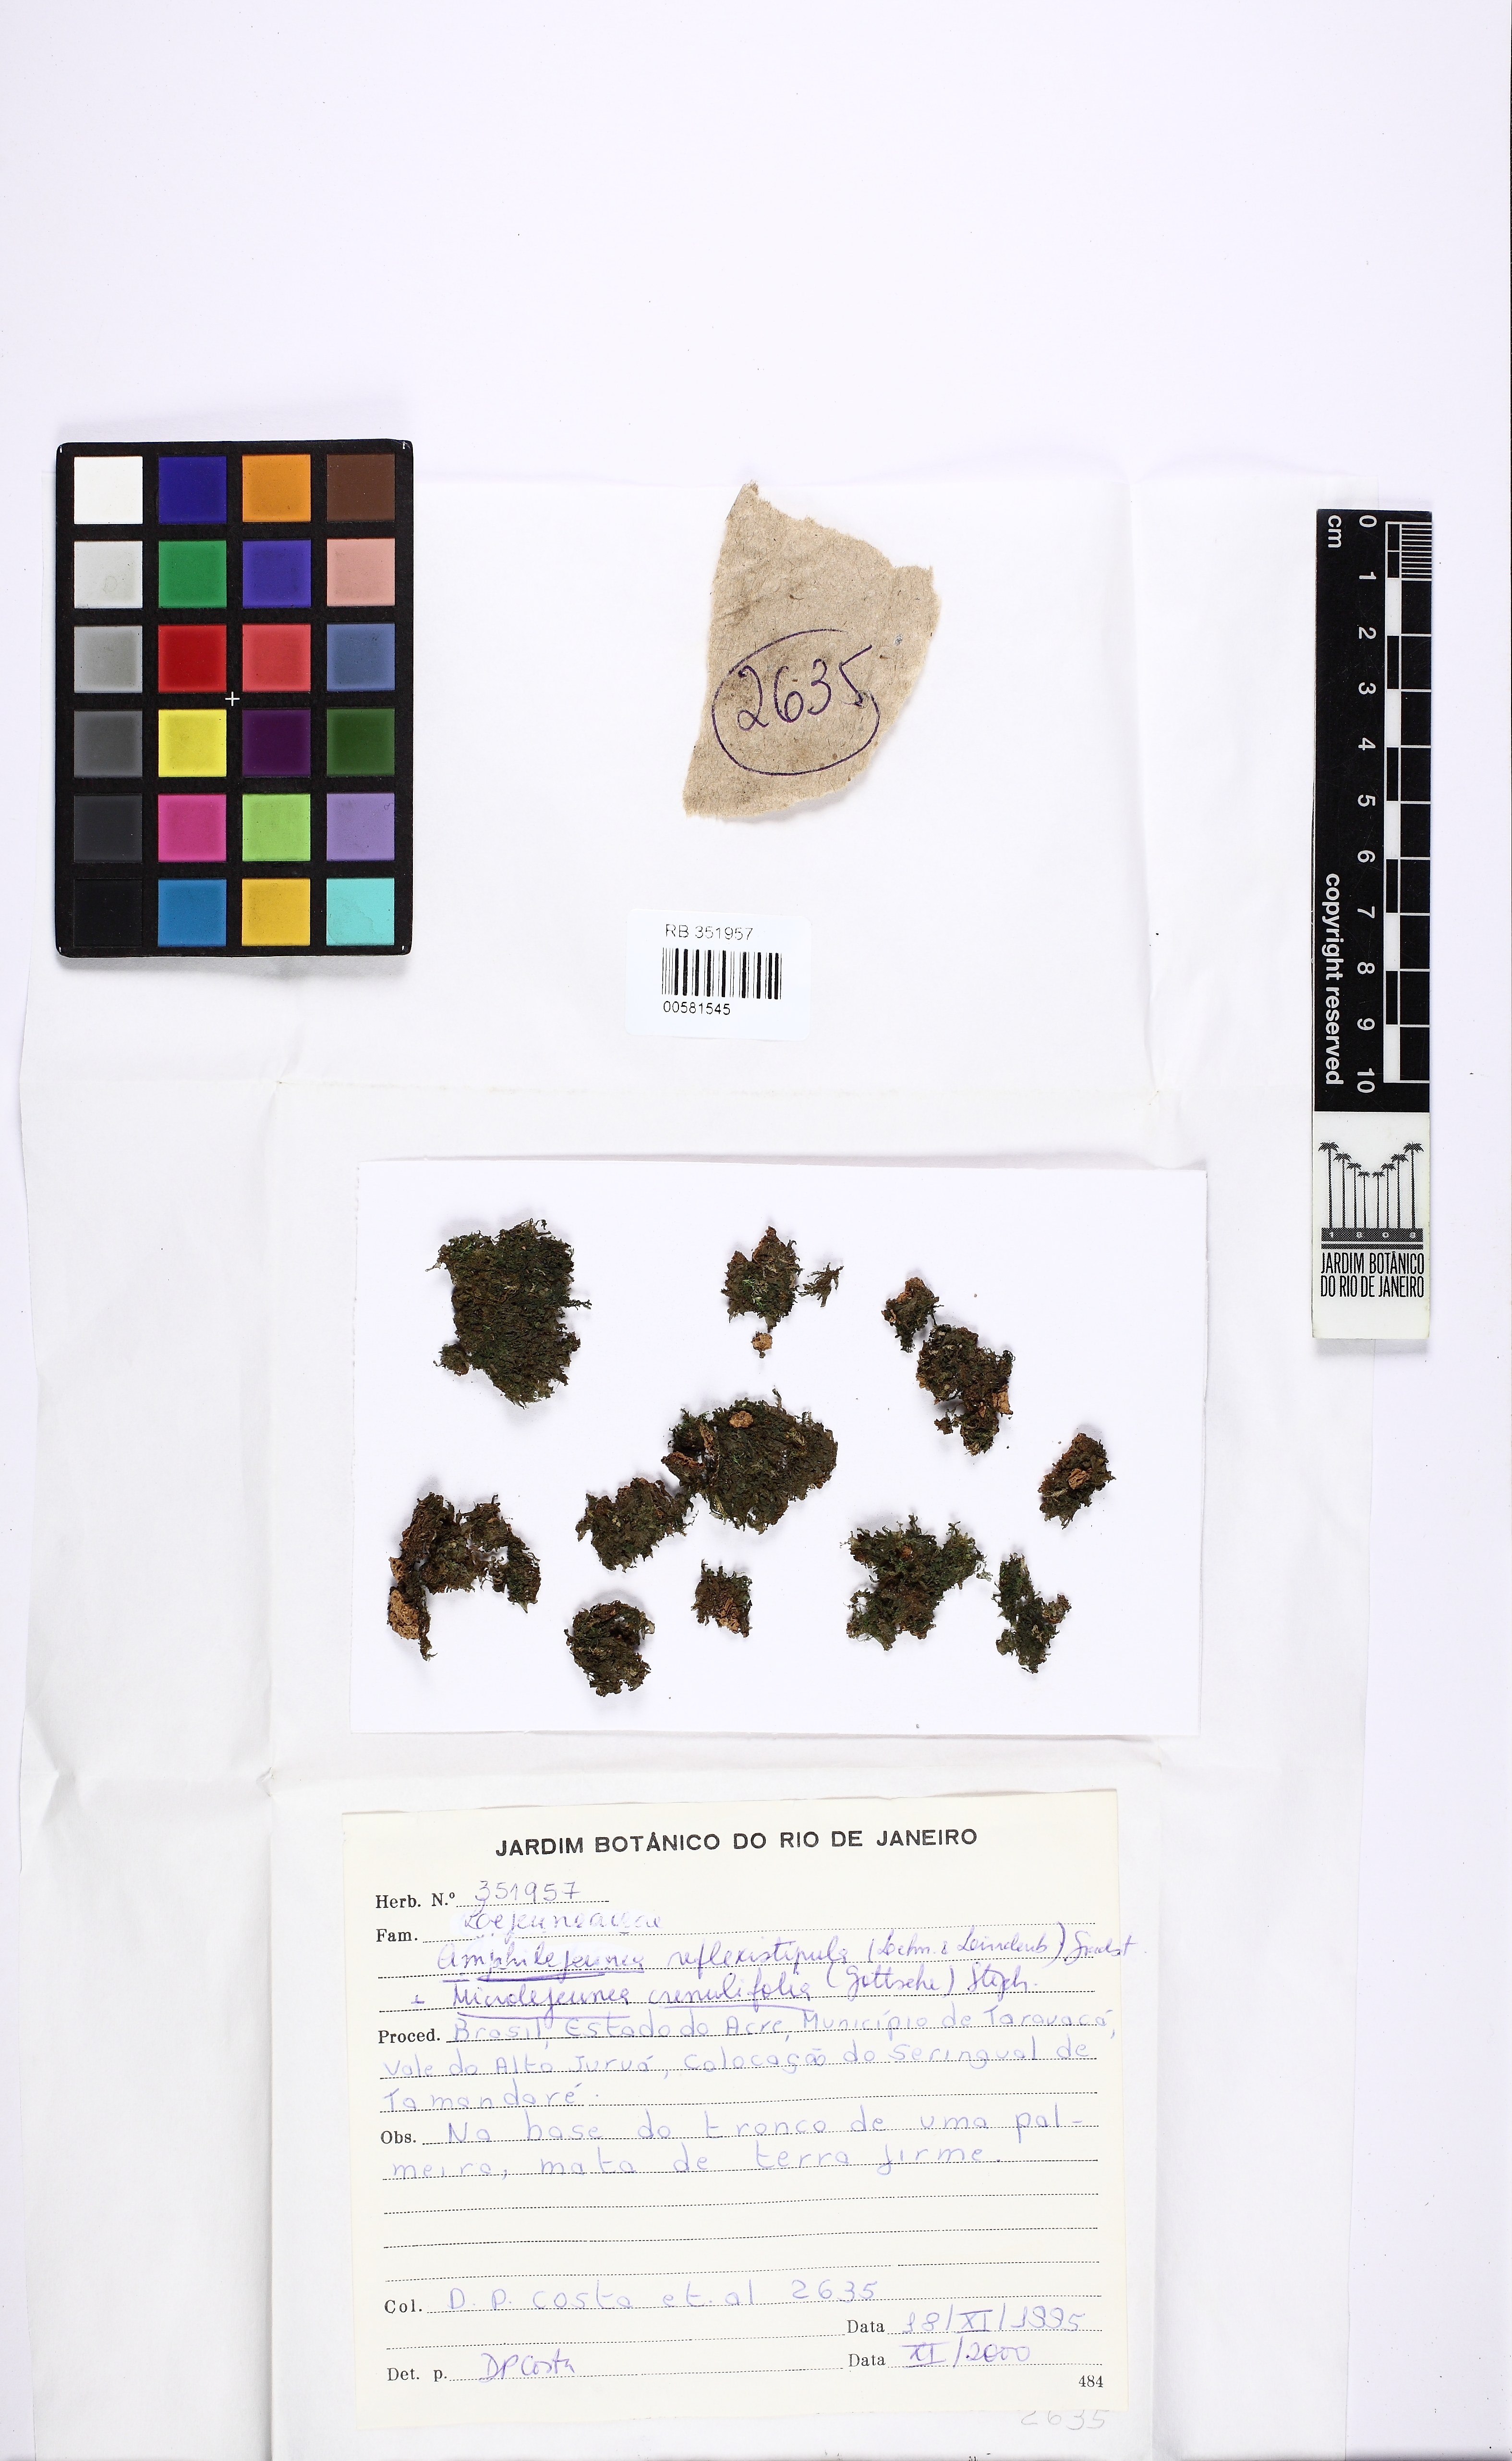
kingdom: Plantae
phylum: Marchantiophyta
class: Jungermanniopsida
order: Porellales
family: Lejeuneaceae
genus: Lejeunea
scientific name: Lejeunea reflexistipula
